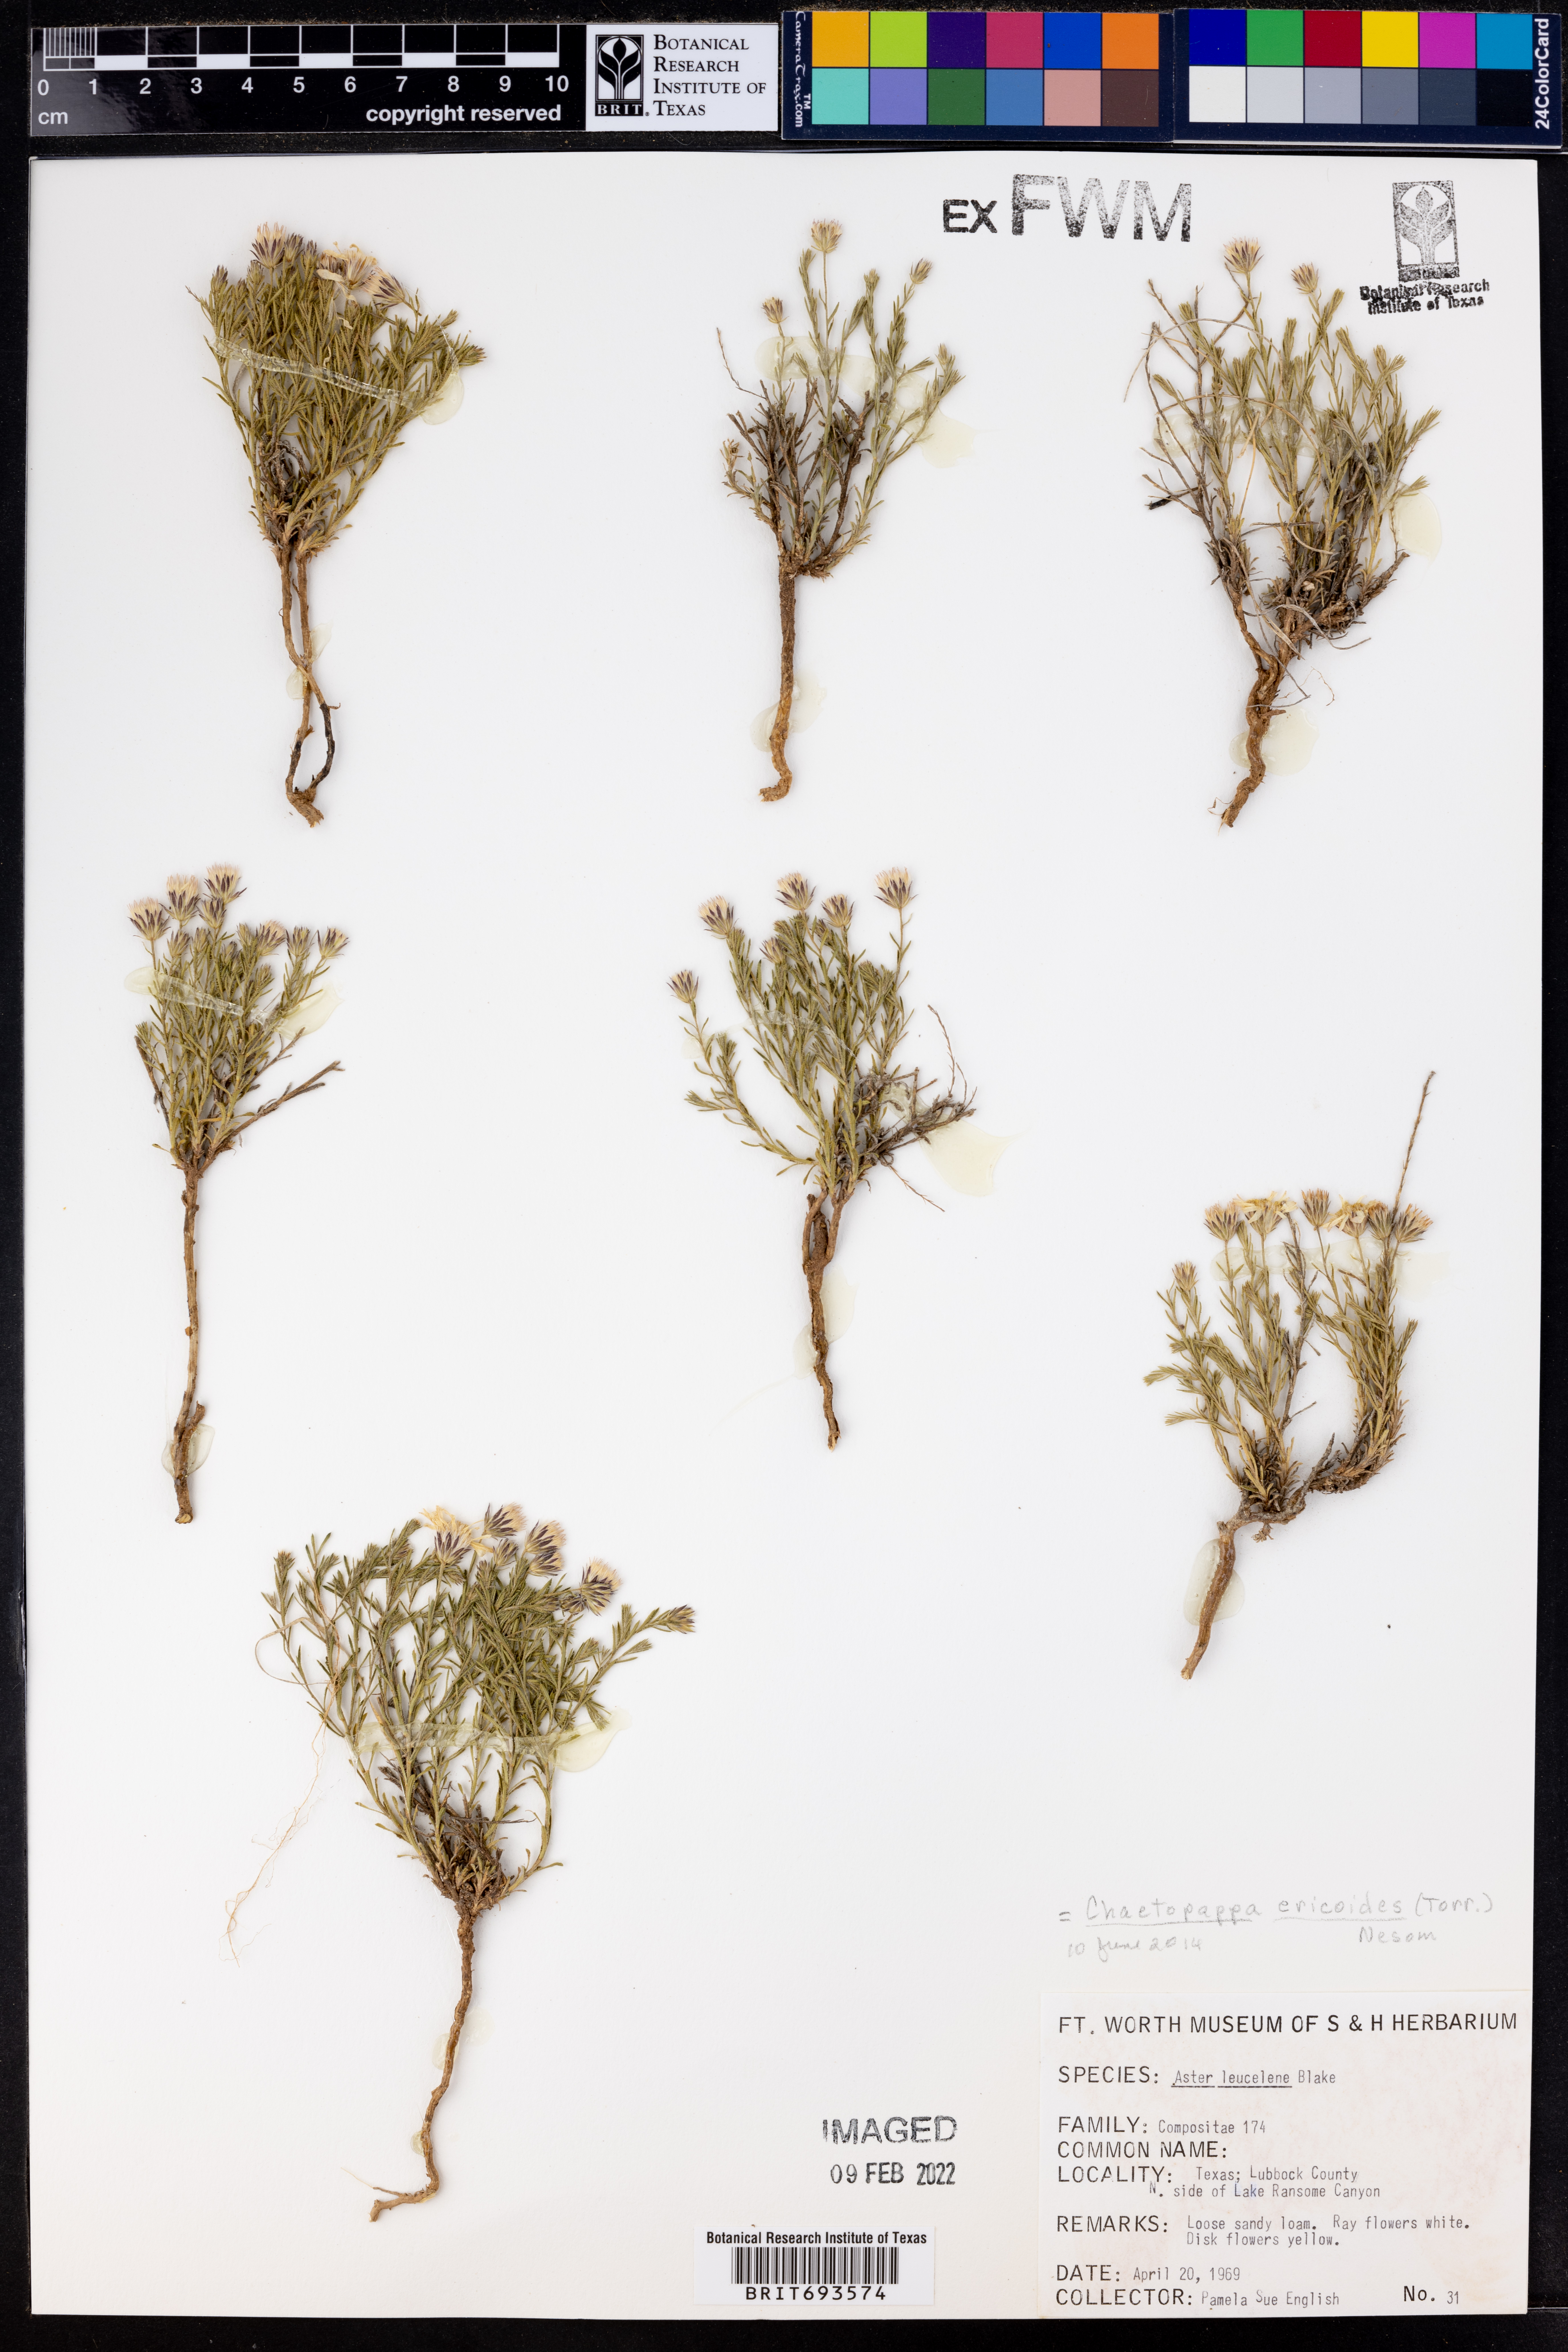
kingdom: Plantae
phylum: Tracheophyta
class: Magnoliopsida
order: Asterales
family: Asteraceae
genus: Chaetopappa
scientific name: Chaetopappa ericoides
